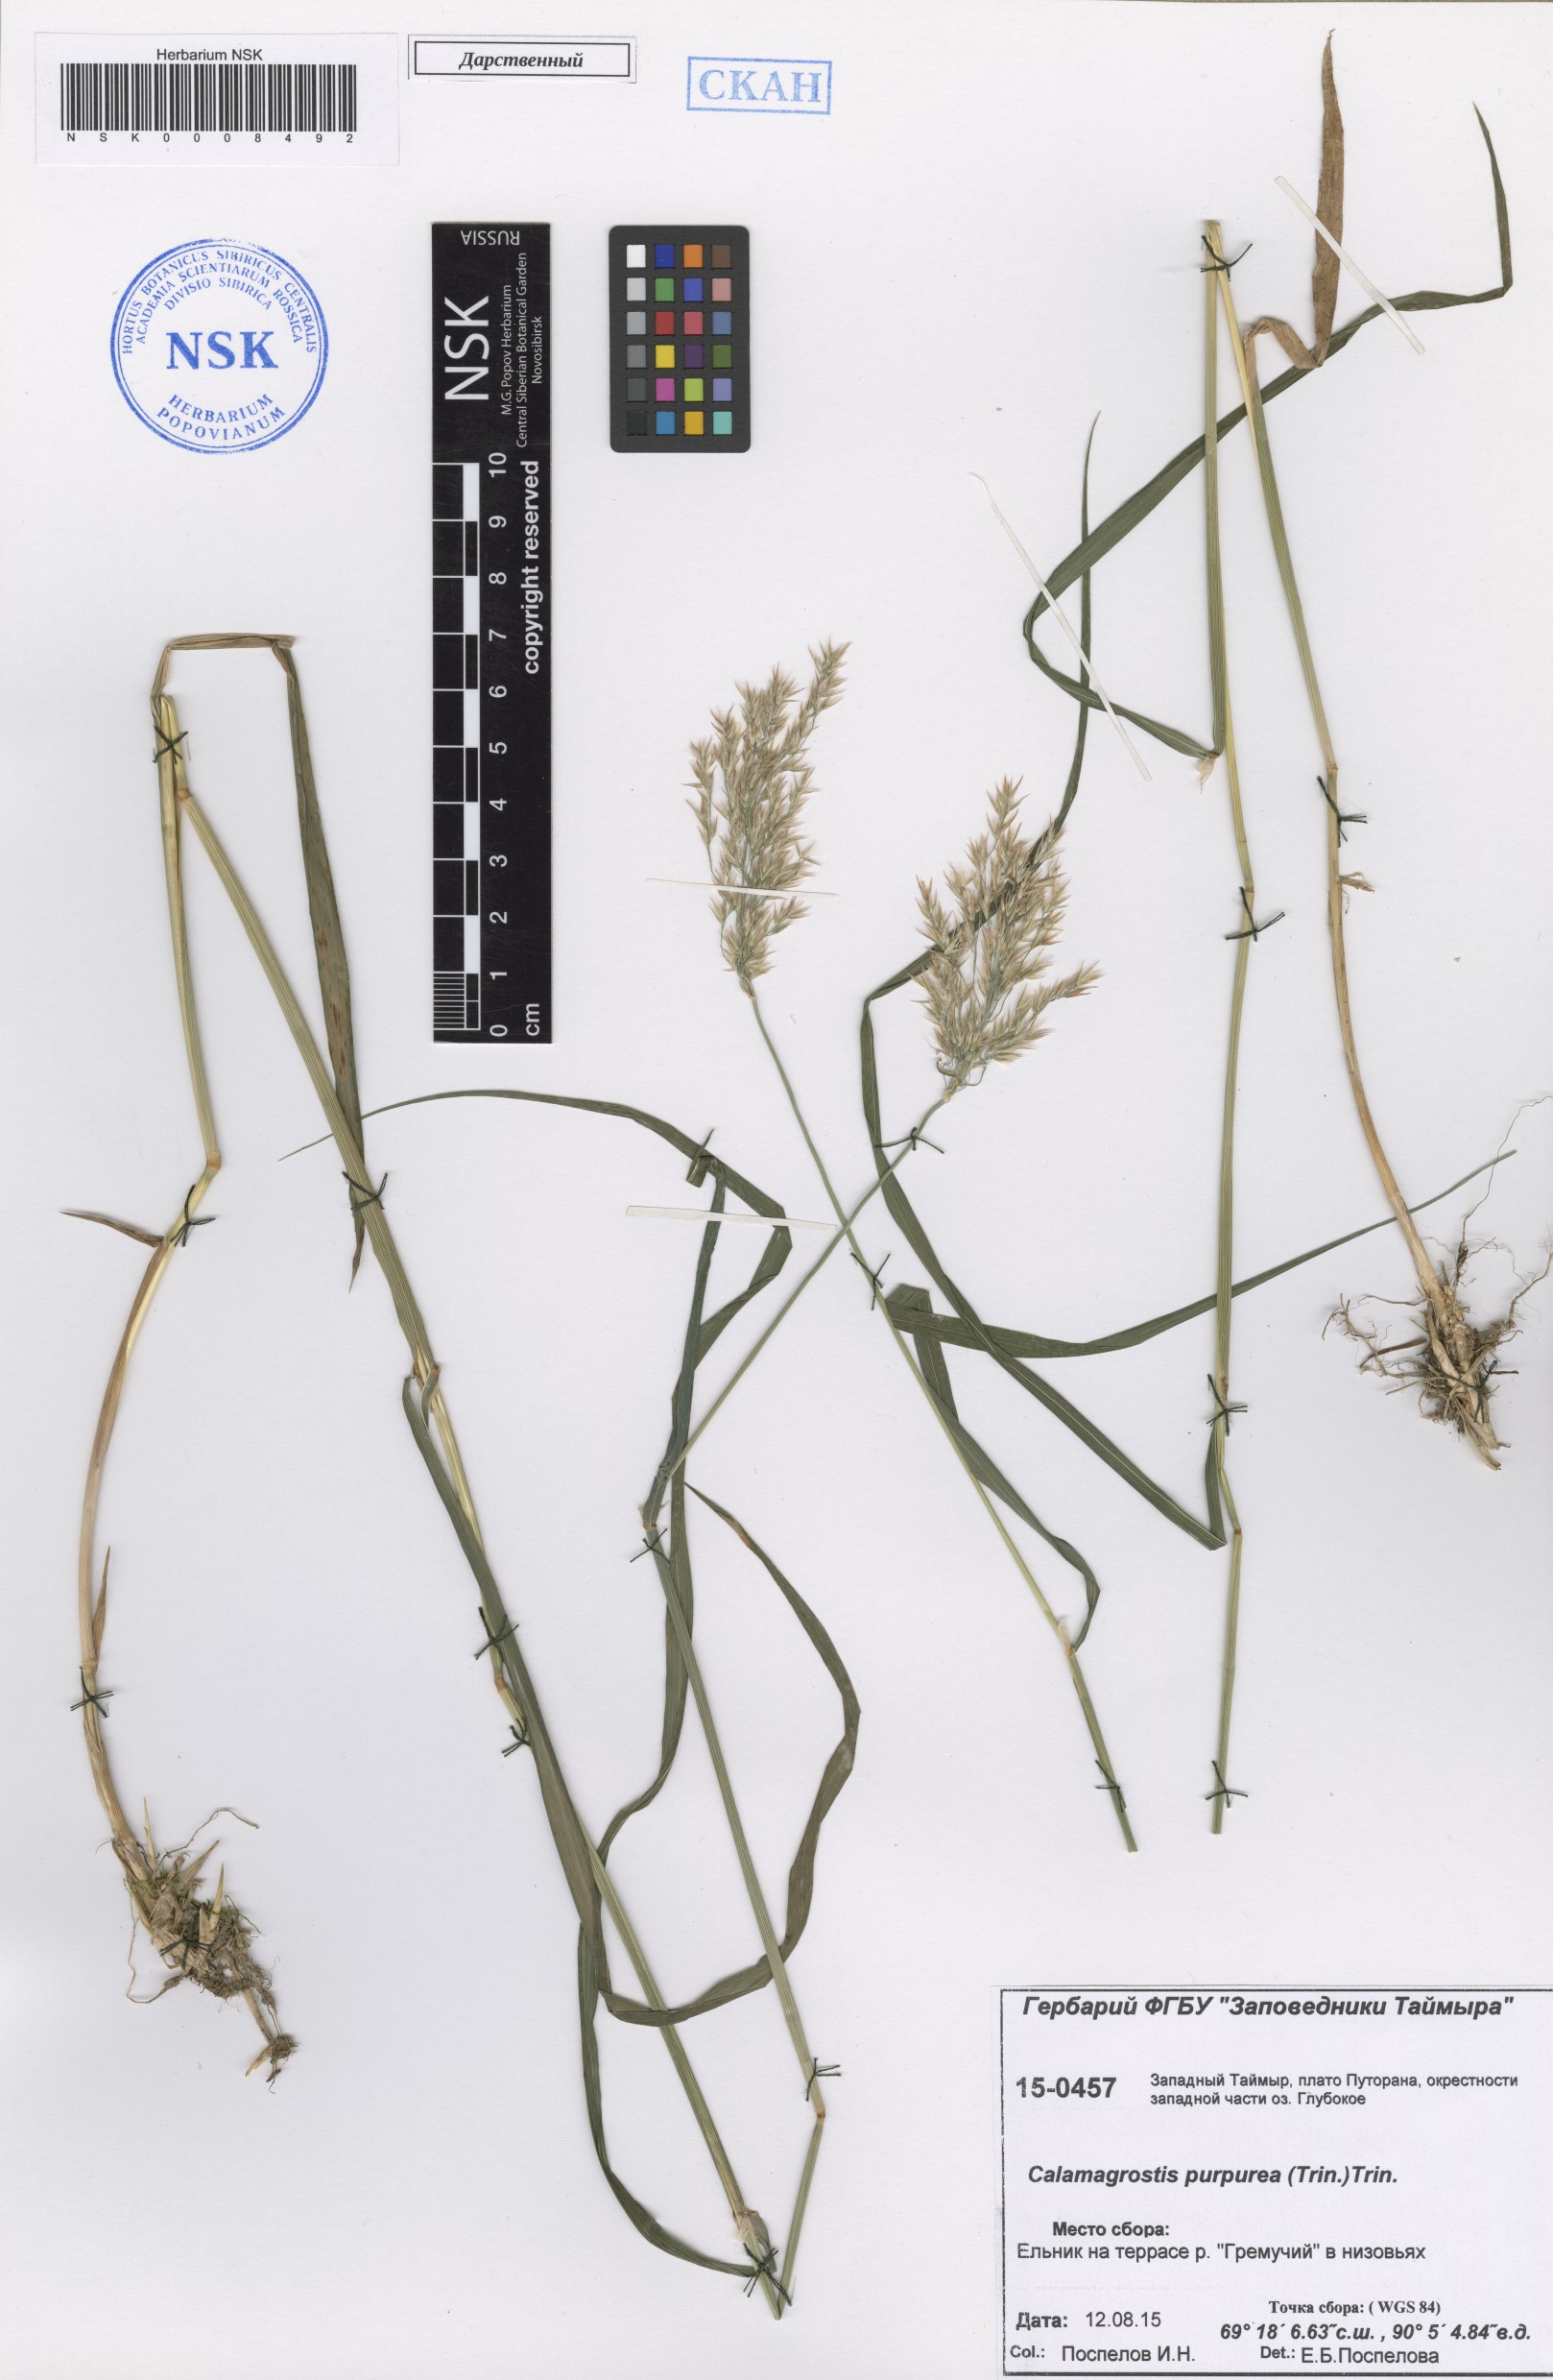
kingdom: Plantae
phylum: Tracheophyta
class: Liliopsida
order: Poales
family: Poaceae
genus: Calamagrostis
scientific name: Calamagrostis purpurea
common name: Scandinavian small-reed
